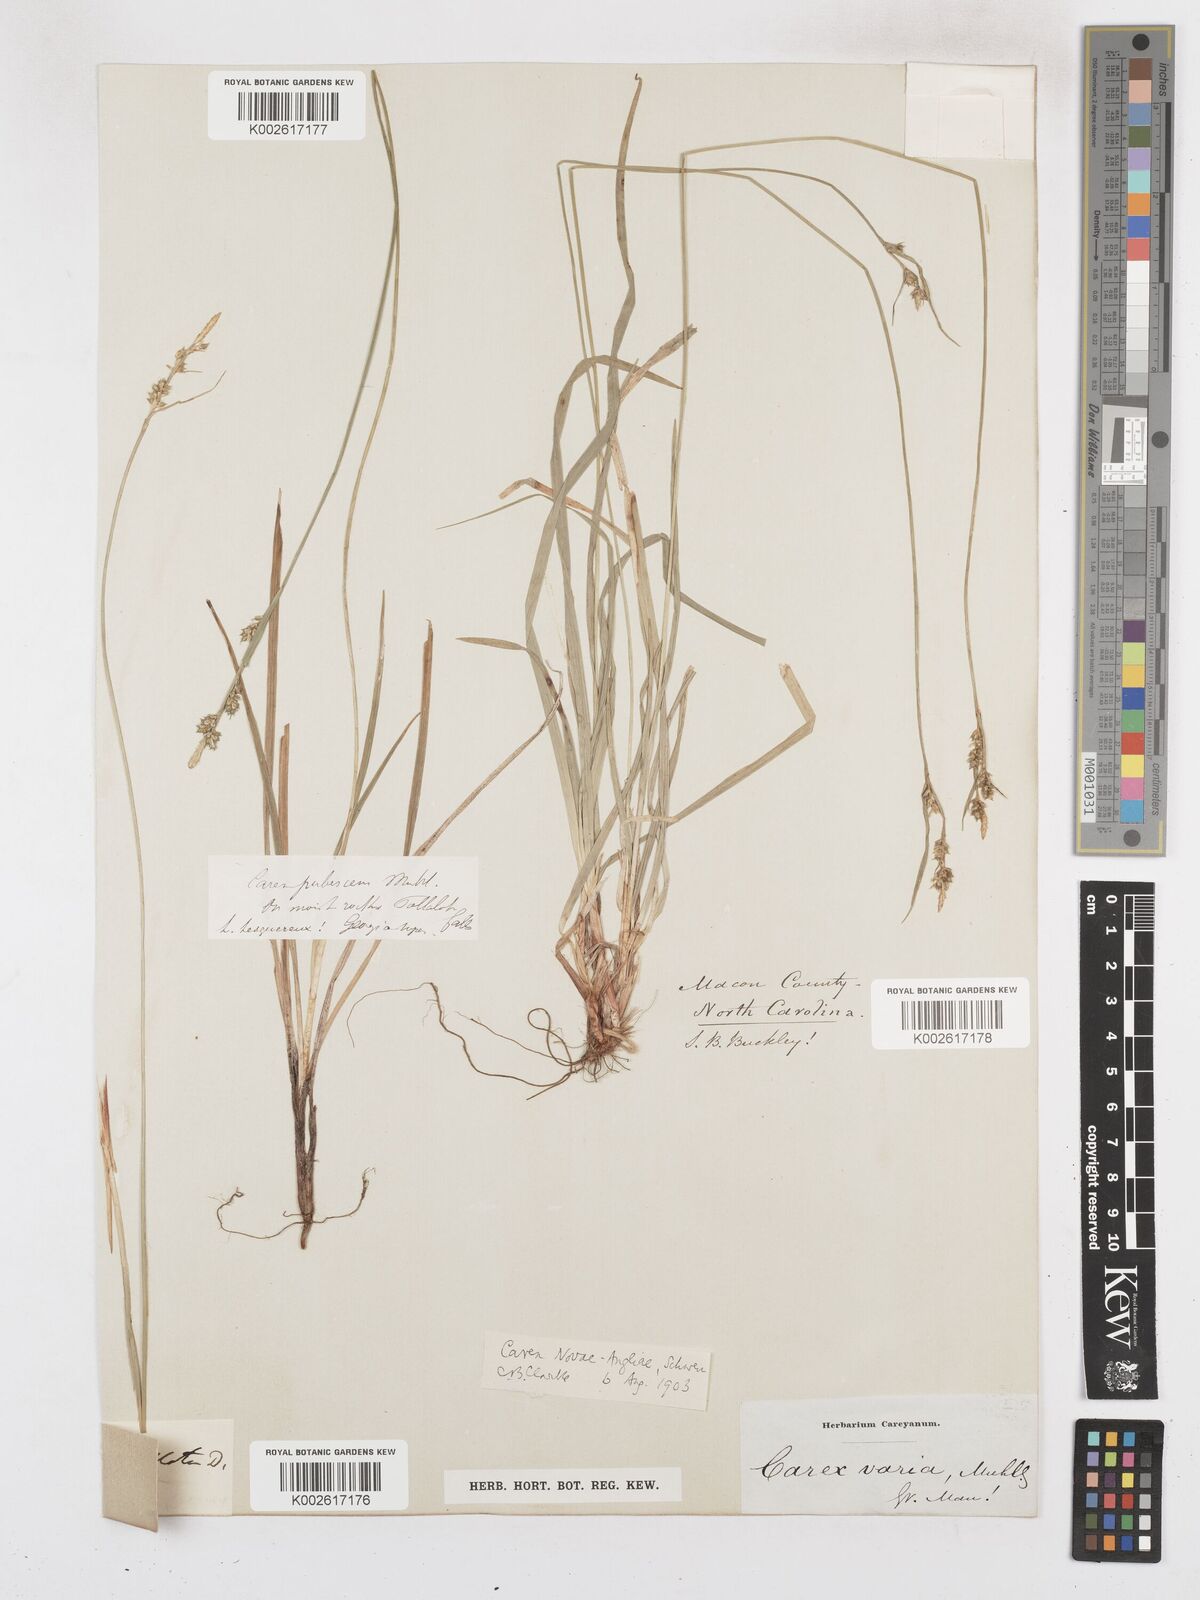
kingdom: Plantae
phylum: Tracheophyta
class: Liliopsida
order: Poales
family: Cyperaceae
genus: Carex
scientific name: Carex novae-angliae
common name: New england sedge
